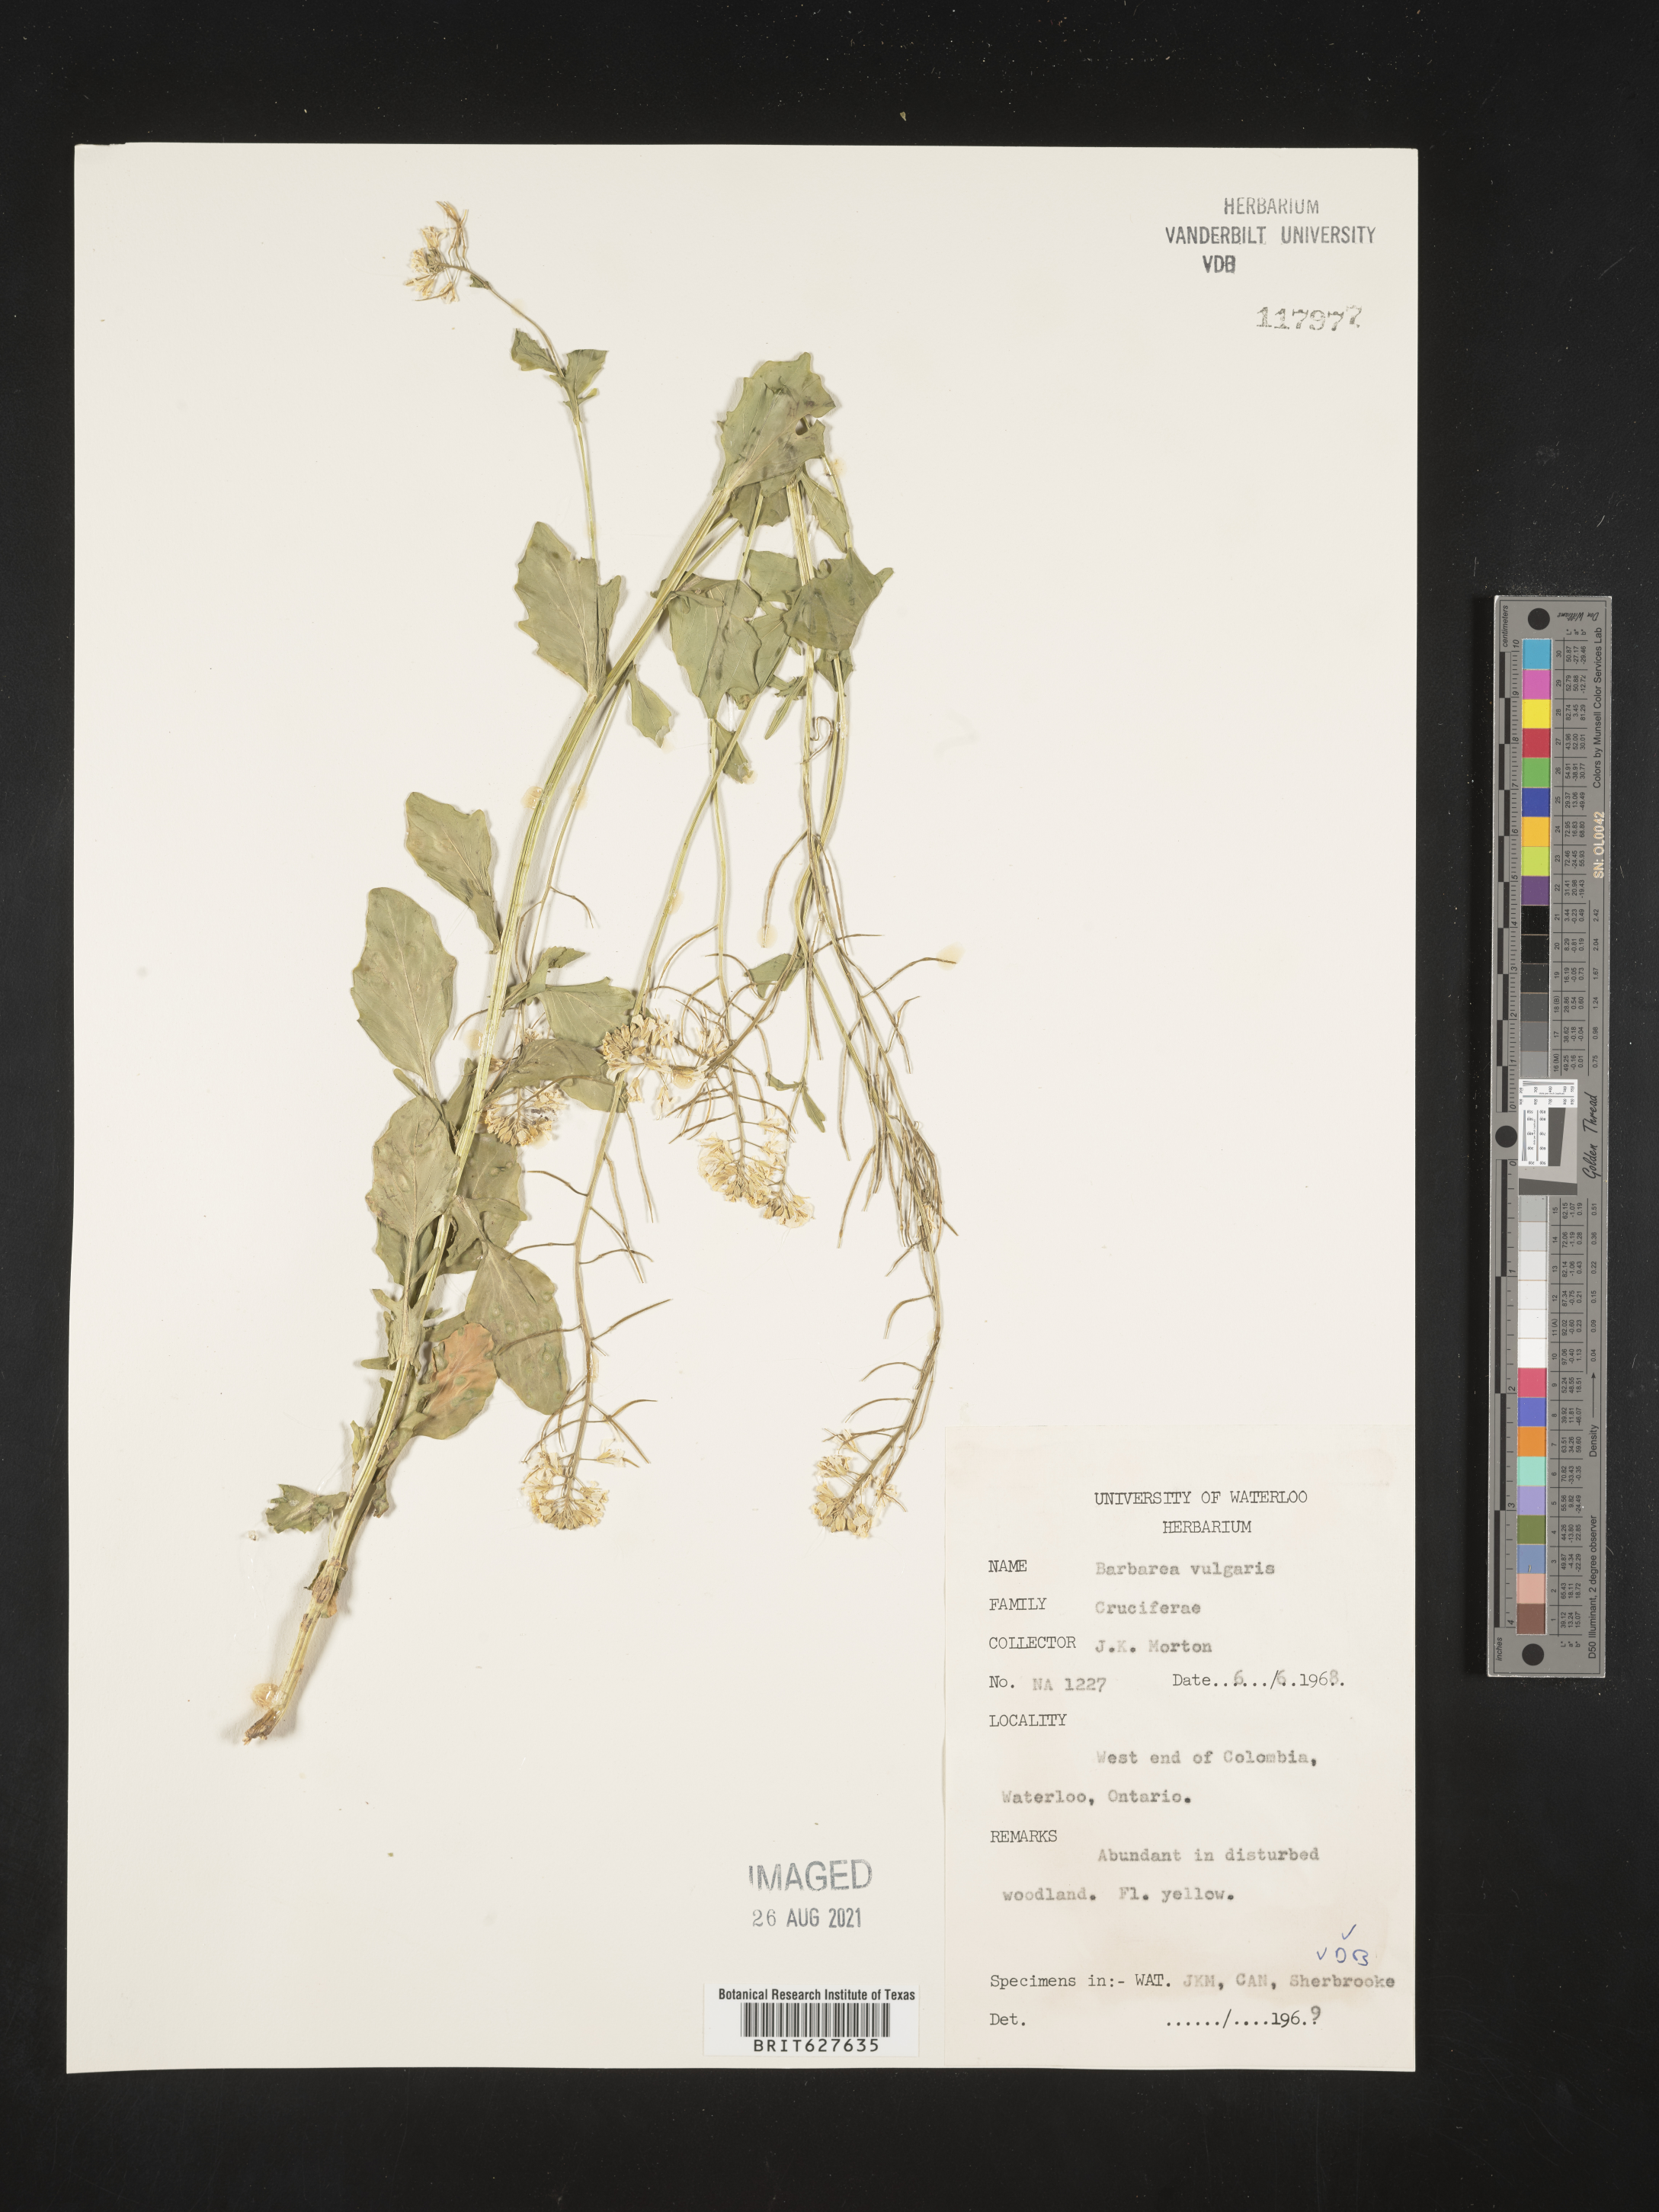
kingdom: Plantae
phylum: Tracheophyta
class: Magnoliopsida
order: Brassicales
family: Brassicaceae
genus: Barbarea
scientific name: Barbarea vulgaris
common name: Cressy-greens
